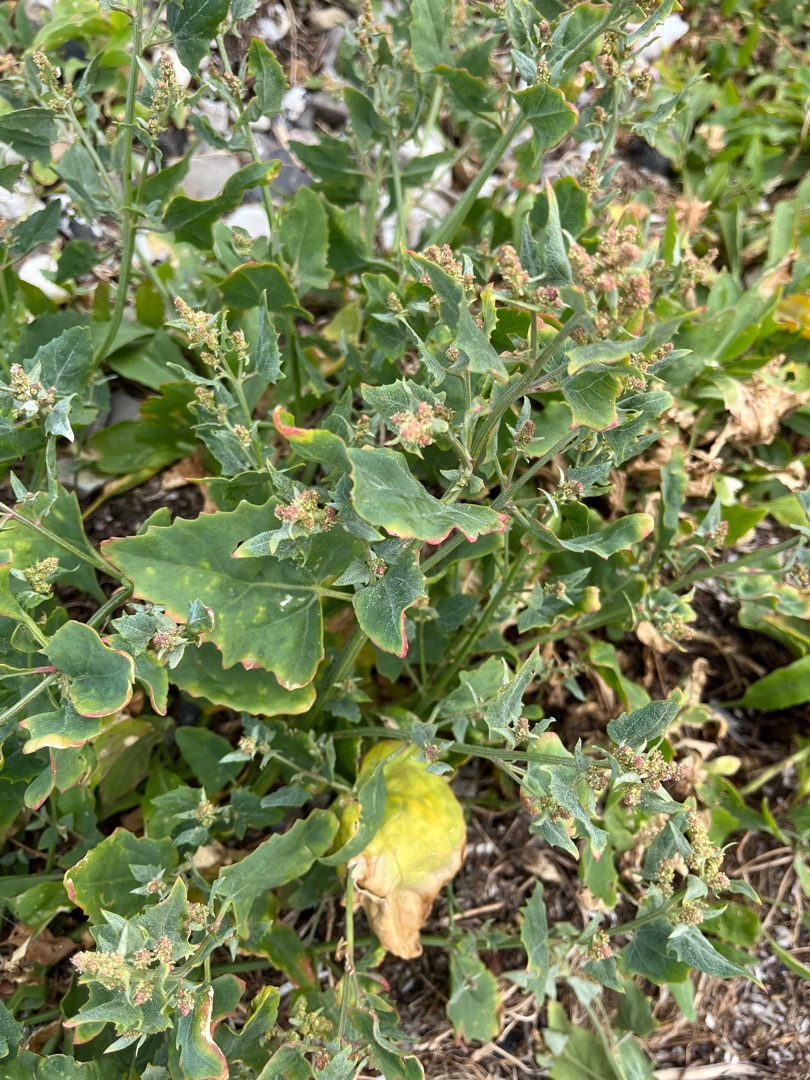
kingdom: Plantae
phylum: Tracheophyta
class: Magnoliopsida
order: Caryophyllales
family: Amaranthaceae
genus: Atriplex
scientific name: Atriplex prostrata
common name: Spyd-mælde
